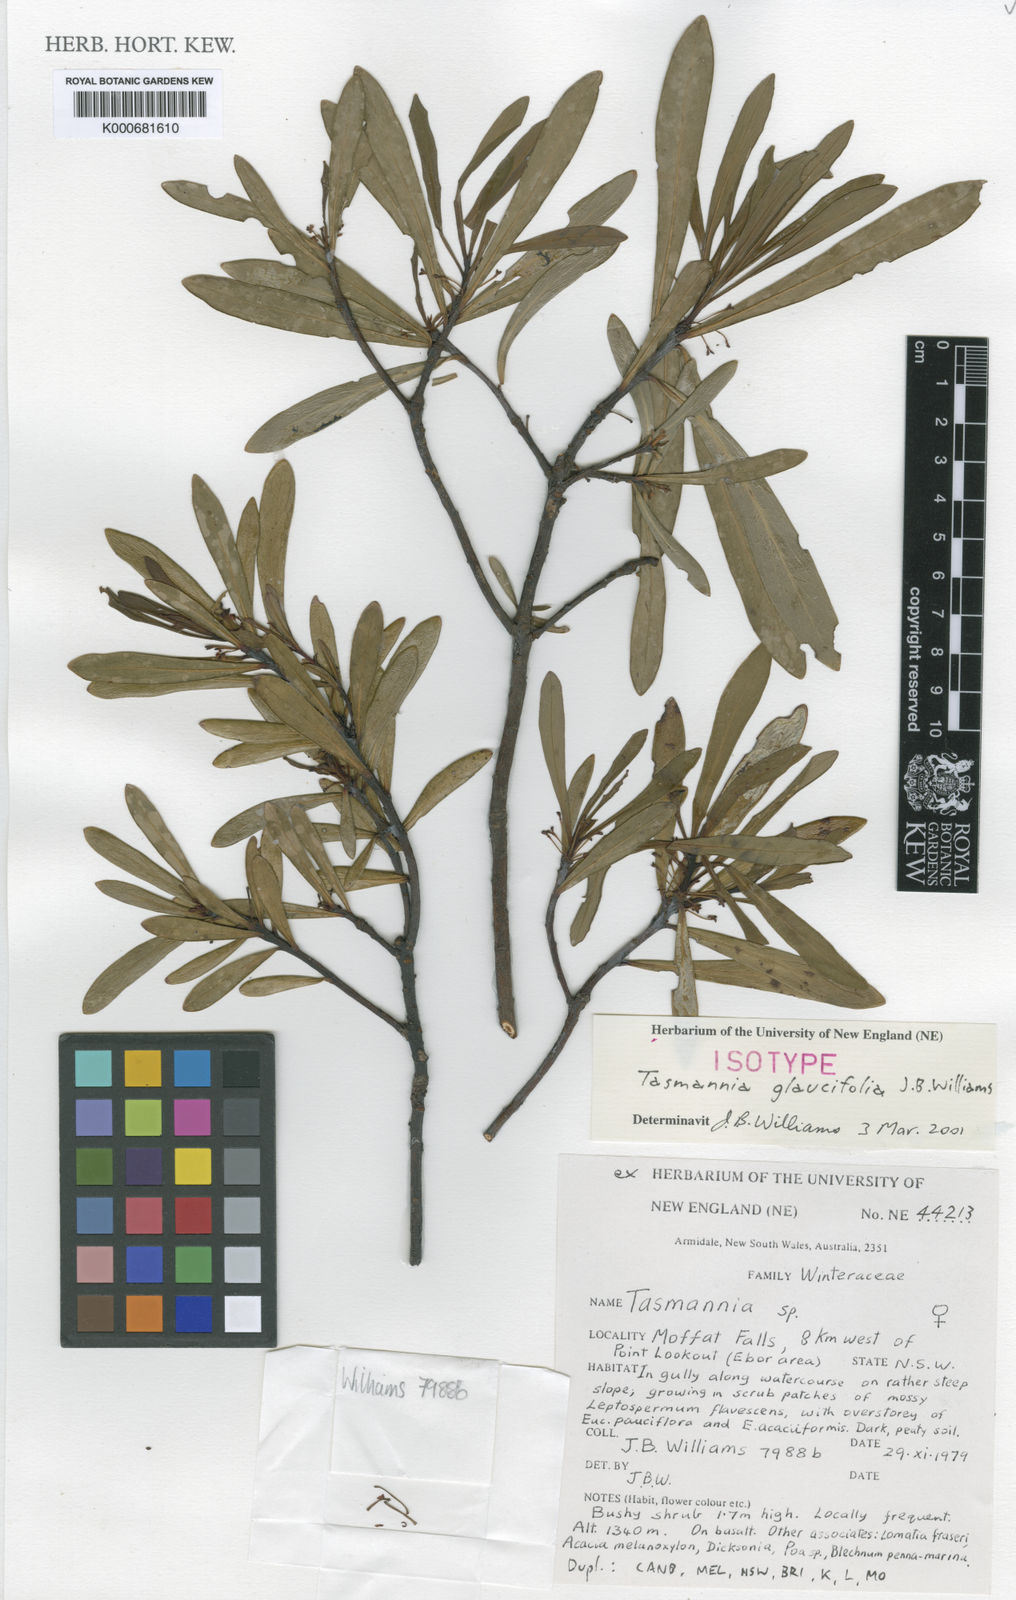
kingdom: Plantae
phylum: Tracheophyta
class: Magnoliopsida
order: Canellales
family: Winteraceae
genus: Drimys
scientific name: Drimys
